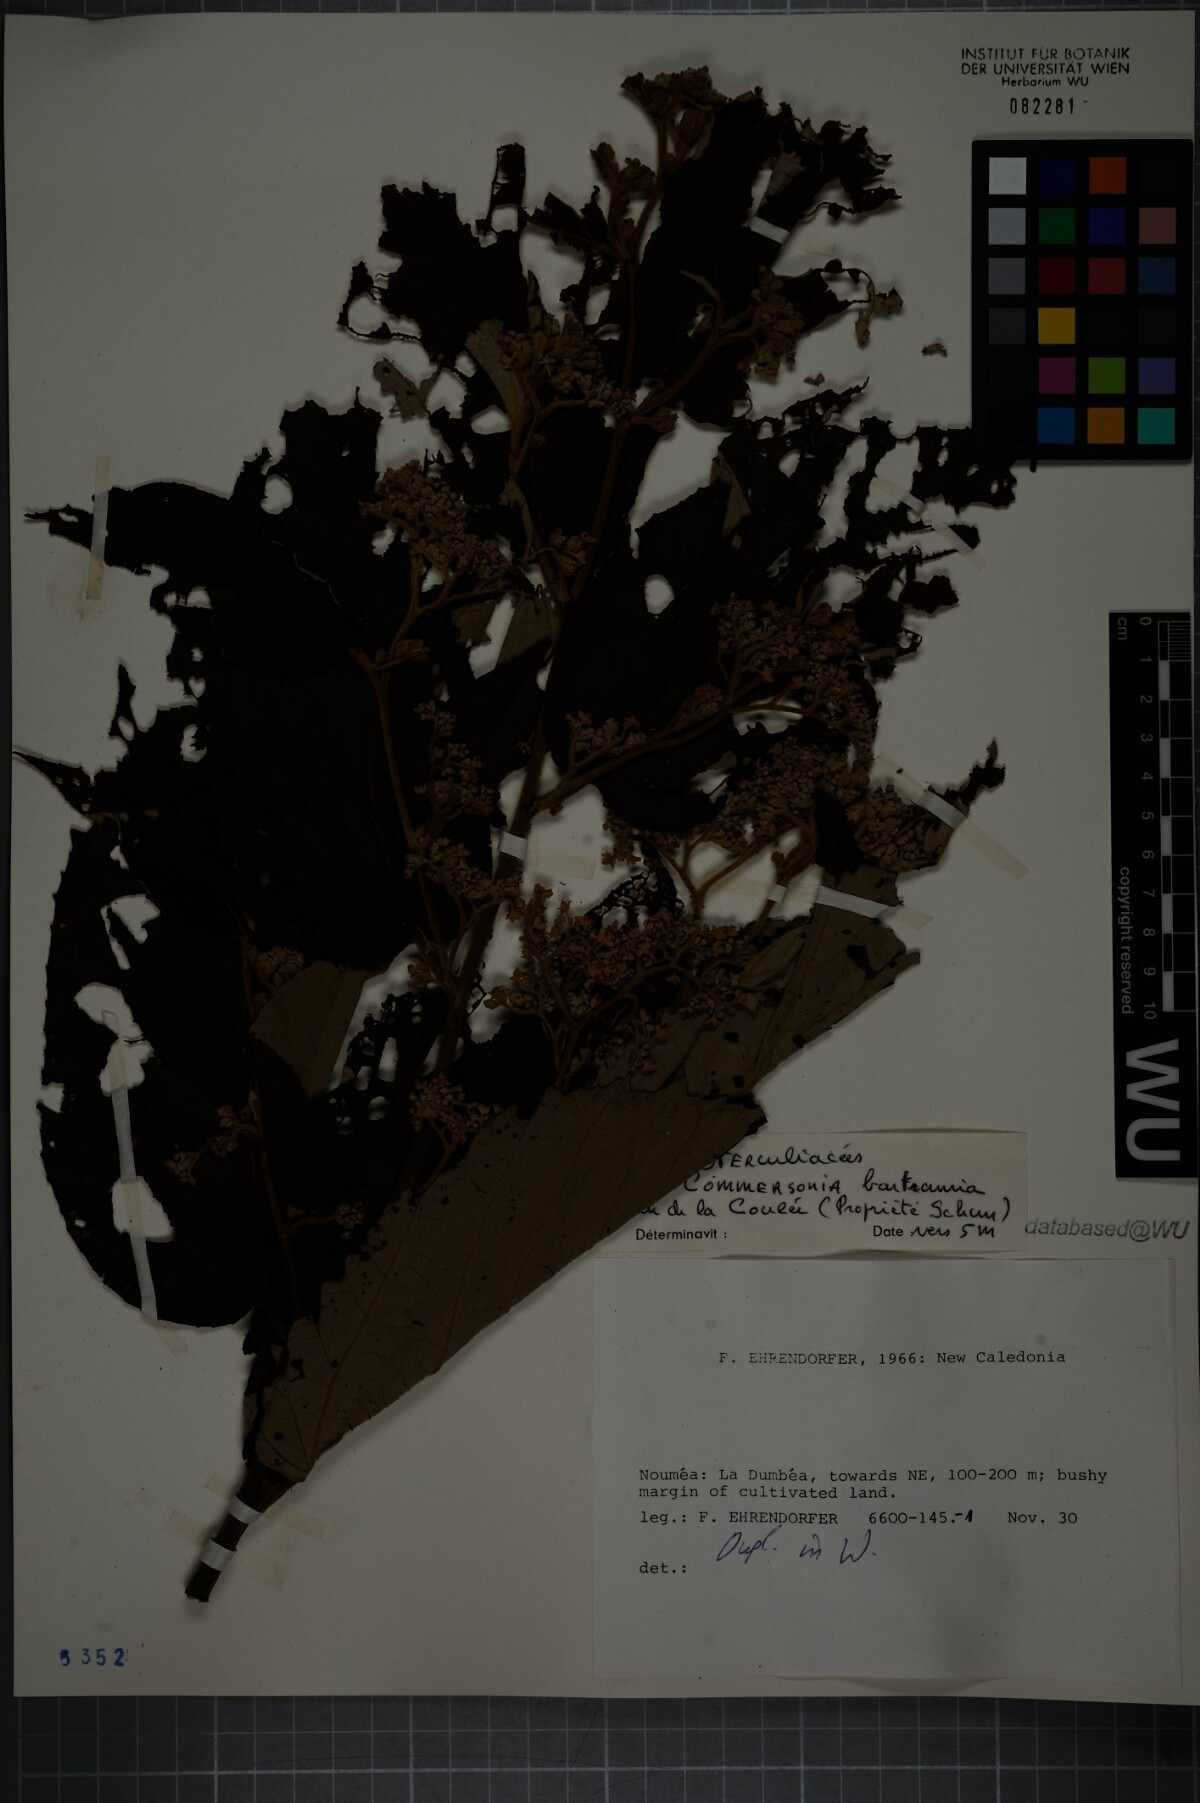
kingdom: Plantae
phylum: Tracheophyta
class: Magnoliopsida
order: Malvales
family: Malvaceae
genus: Commersonia
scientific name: Commersonia bartramia
